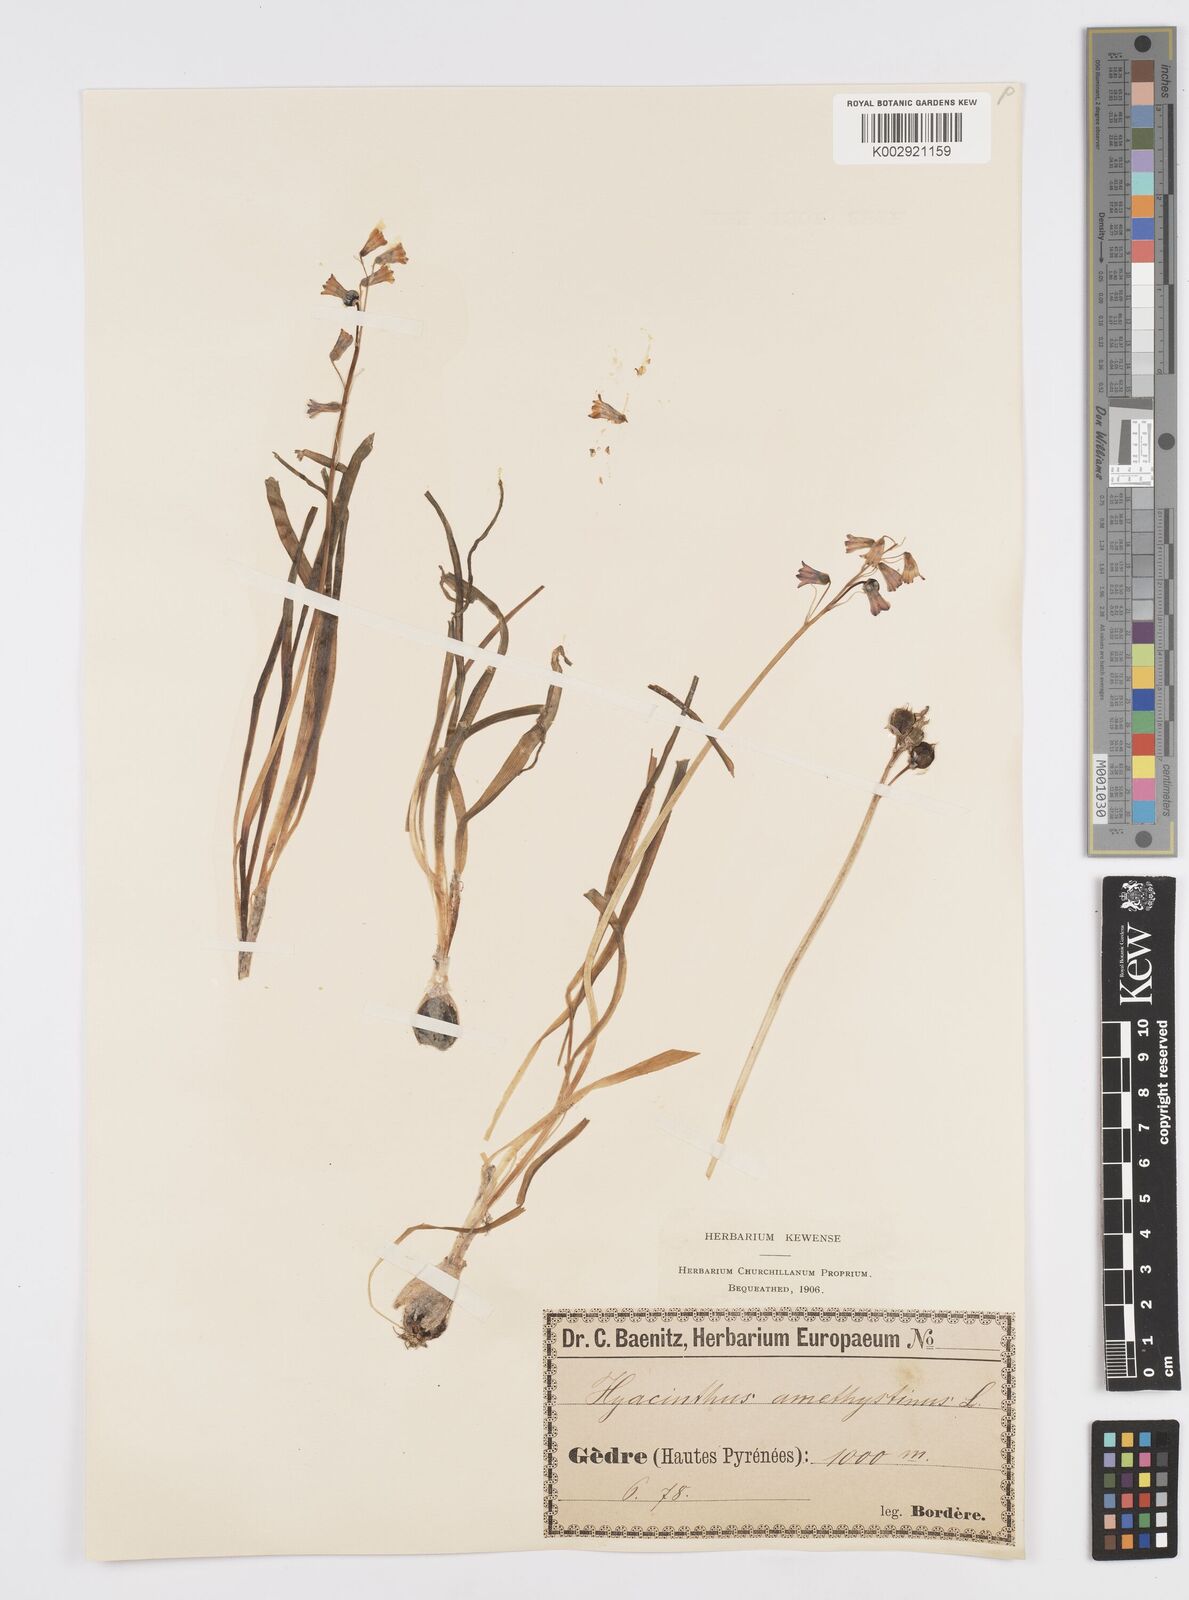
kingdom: Plantae
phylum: Tracheophyta
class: Liliopsida
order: Asparagales
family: Asparagaceae
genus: Brimeura
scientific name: Brimeura amethystina
